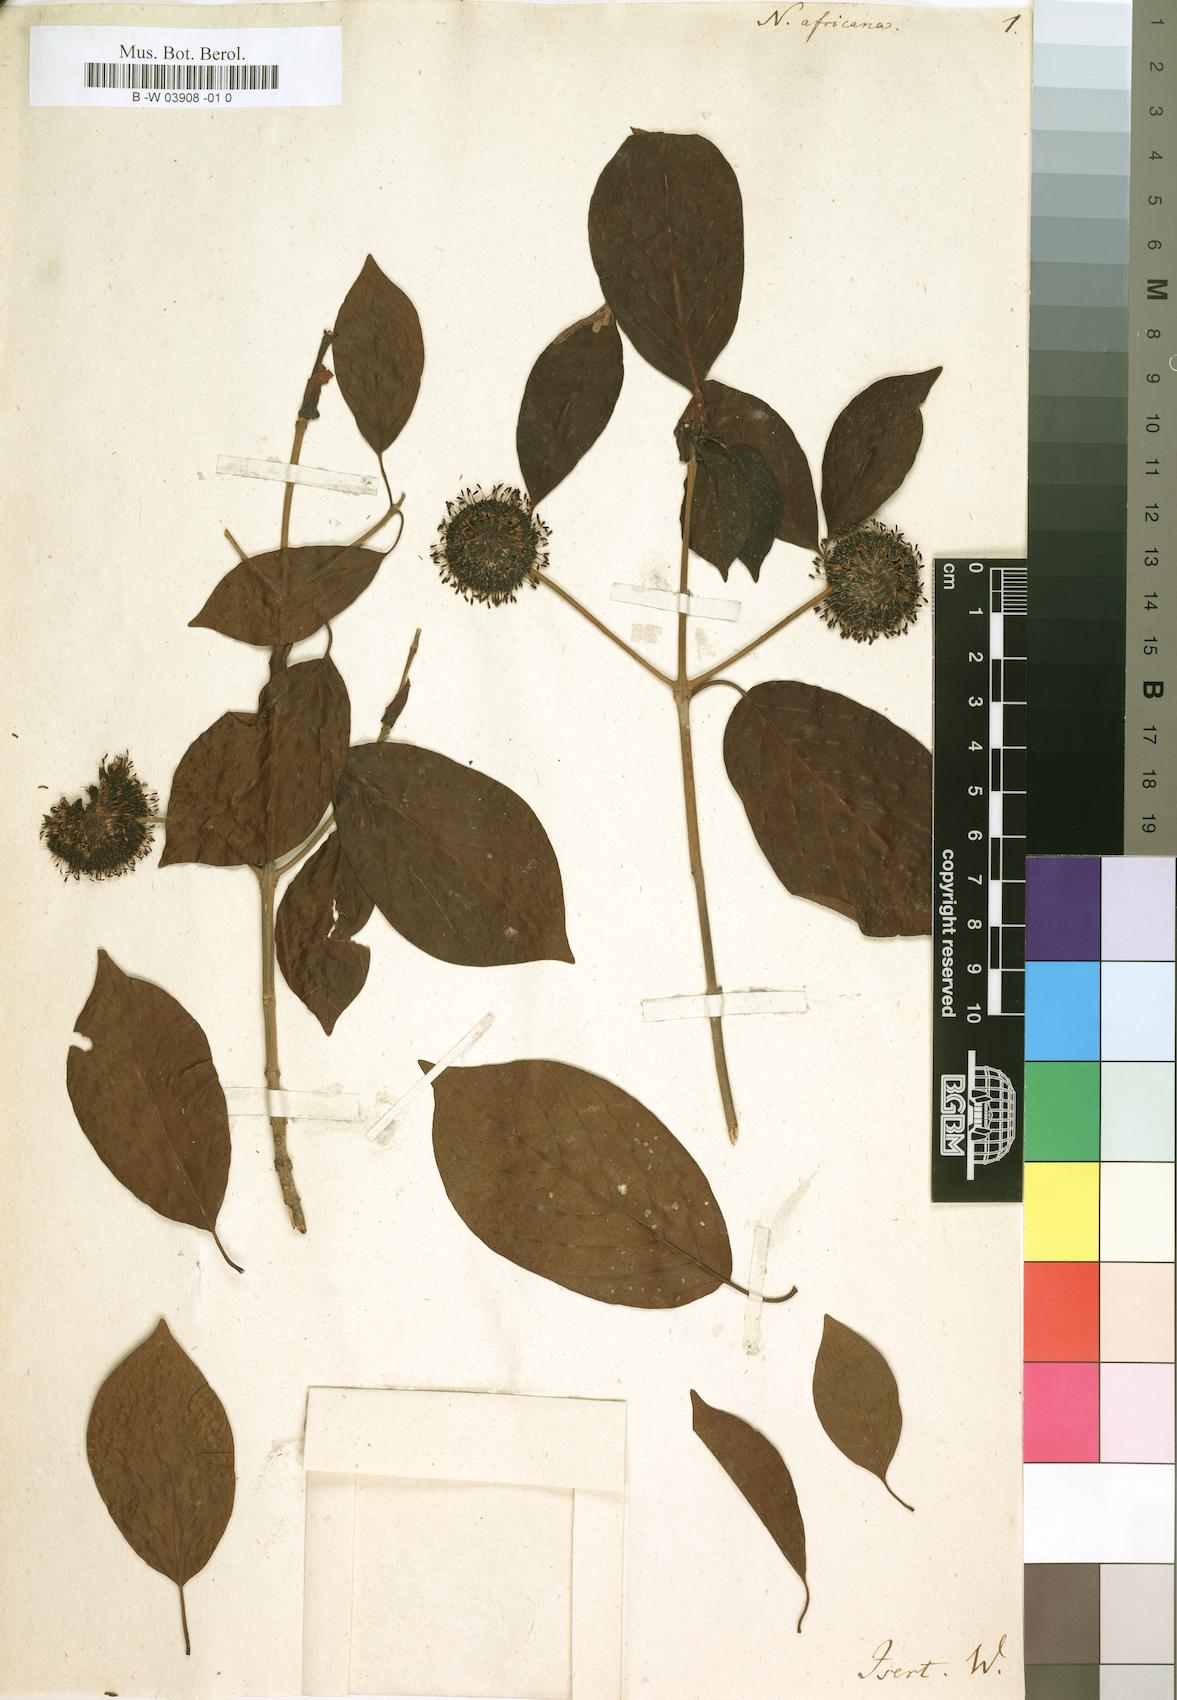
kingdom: Plantae
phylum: Tracheophyta
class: Magnoliopsida
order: Gentianales
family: Rubiaceae
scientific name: Rubiaceae
